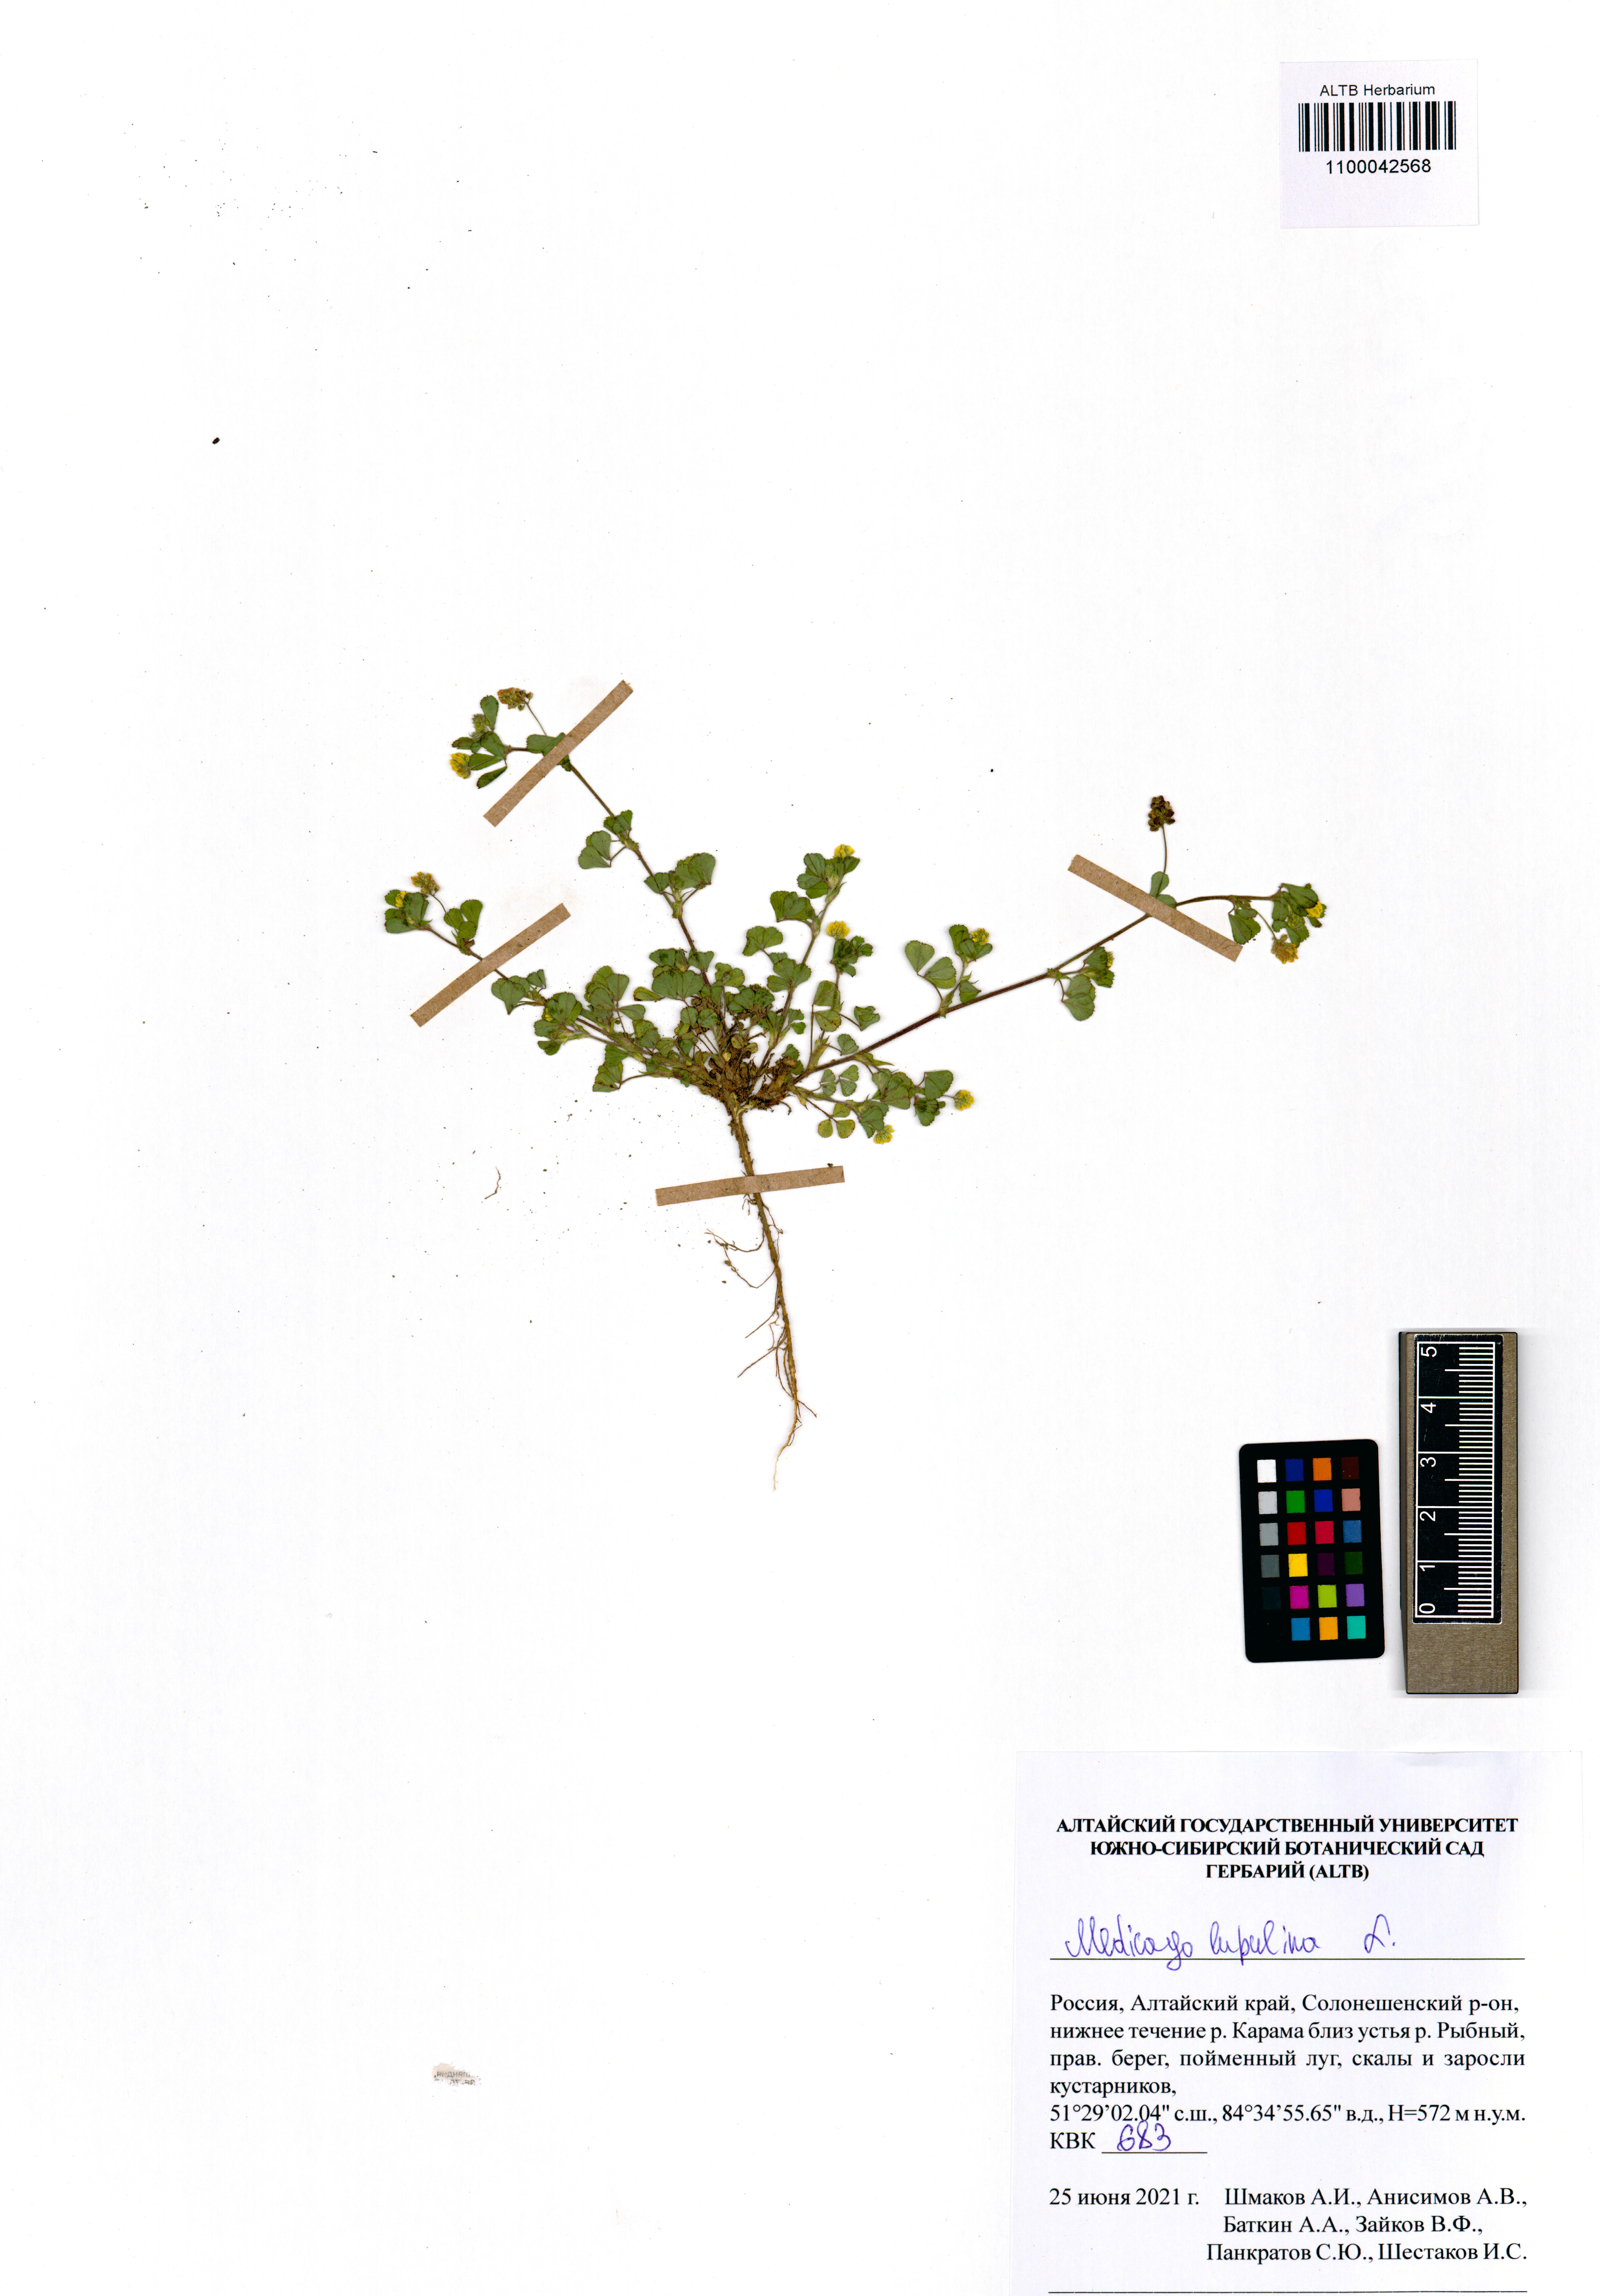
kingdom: Plantae
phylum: Tracheophyta
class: Magnoliopsida
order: Fabales
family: Fabaceae
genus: Medicago
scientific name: Medicago lupulina
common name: Black medick
